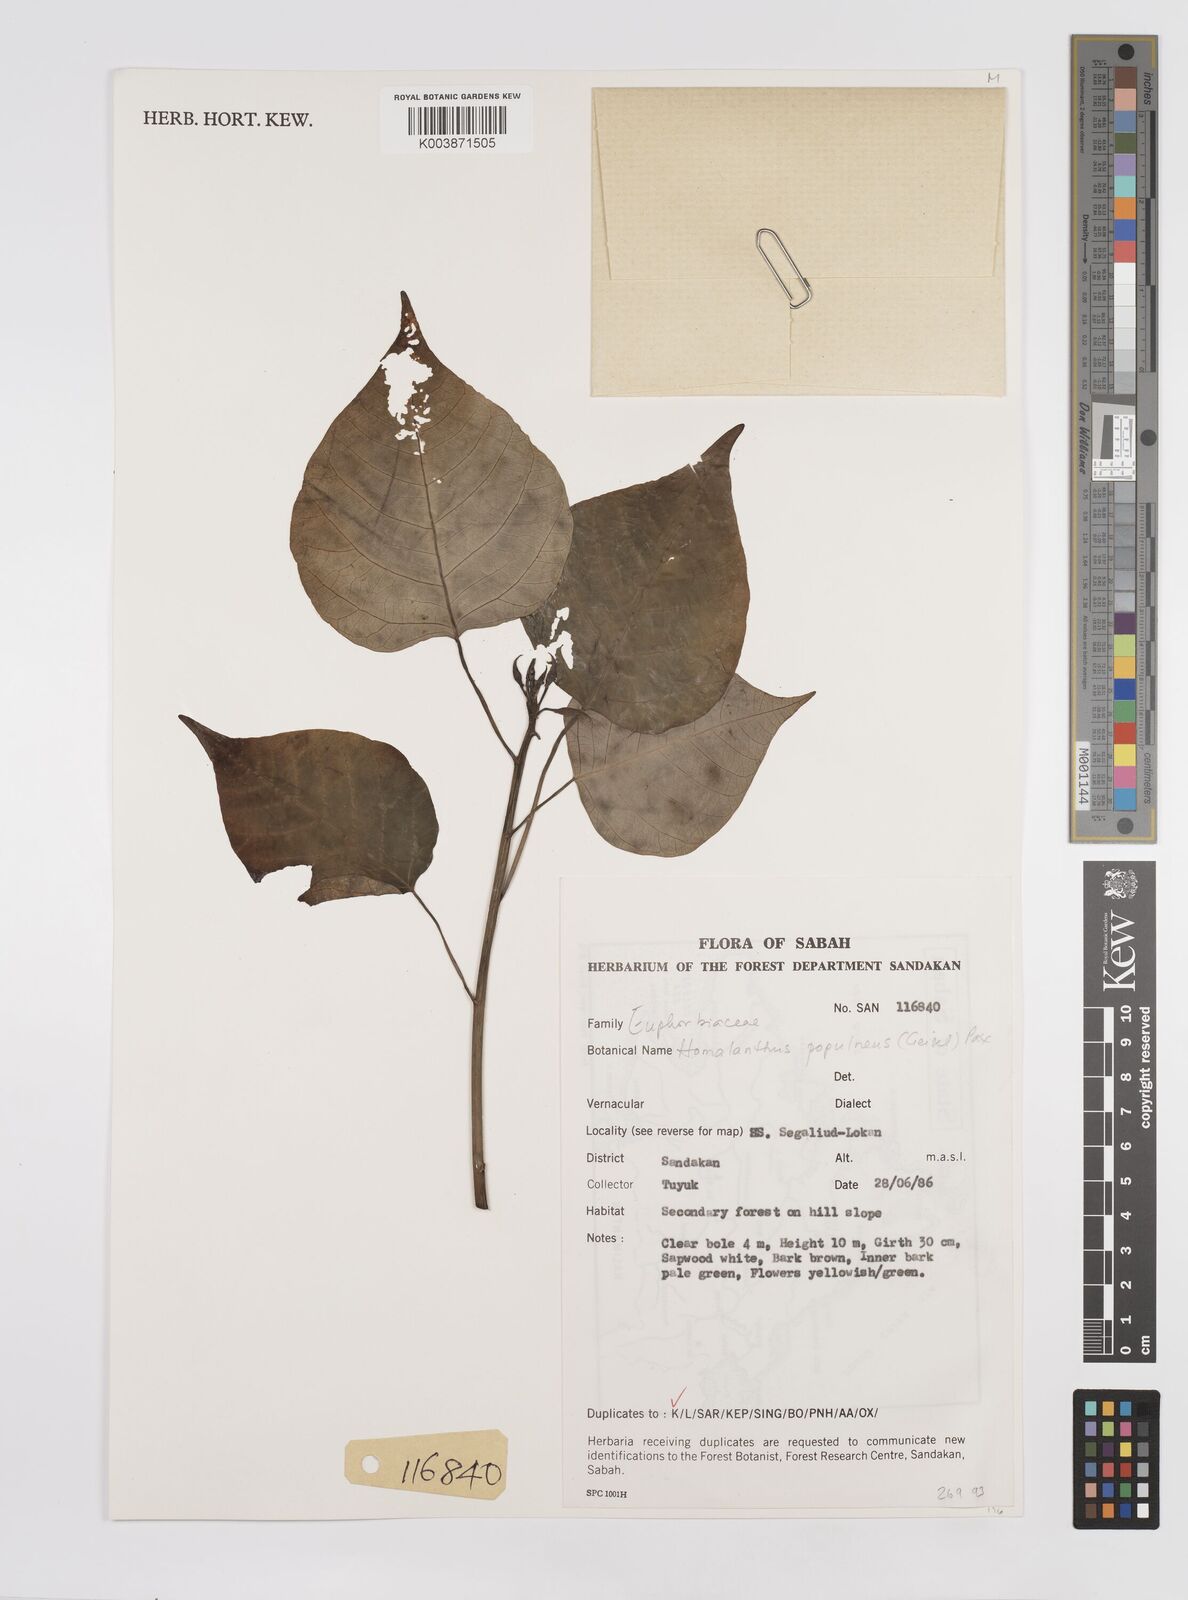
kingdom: Plantae
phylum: Tracheophyta
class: Magnoliopsida
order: Malpighiales
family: Euphorbiaceae
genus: Homalanthus
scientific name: Homalanthus populneus
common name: Spurge
